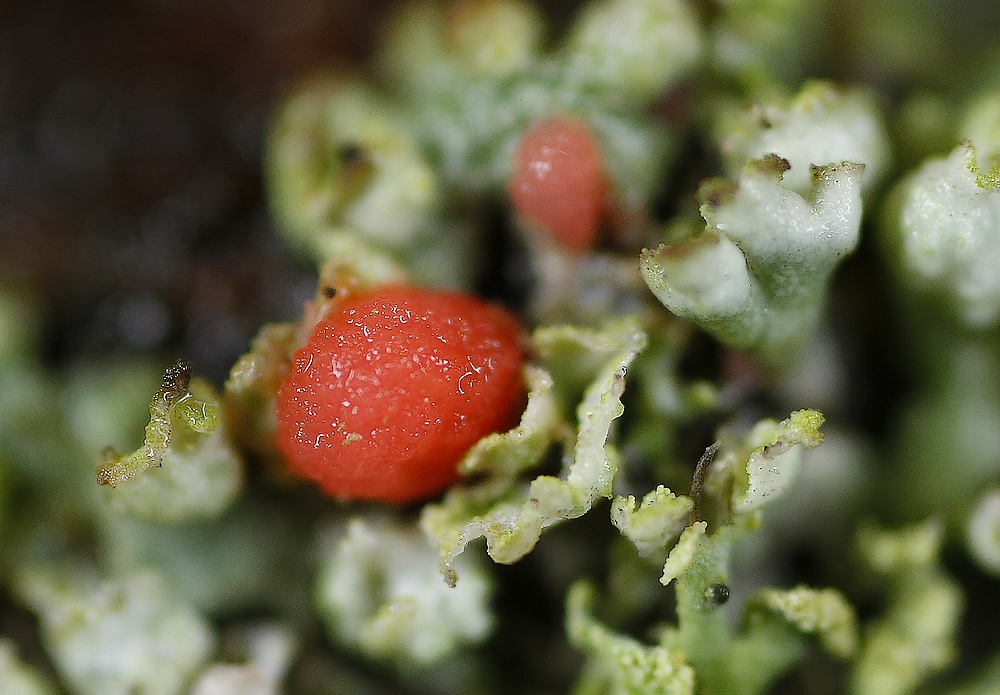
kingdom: Fungi
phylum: Ascomycota
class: Sordariomycetes
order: Hypocreales
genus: Illosporiopsis
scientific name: Illosporiopsis christiansenii
